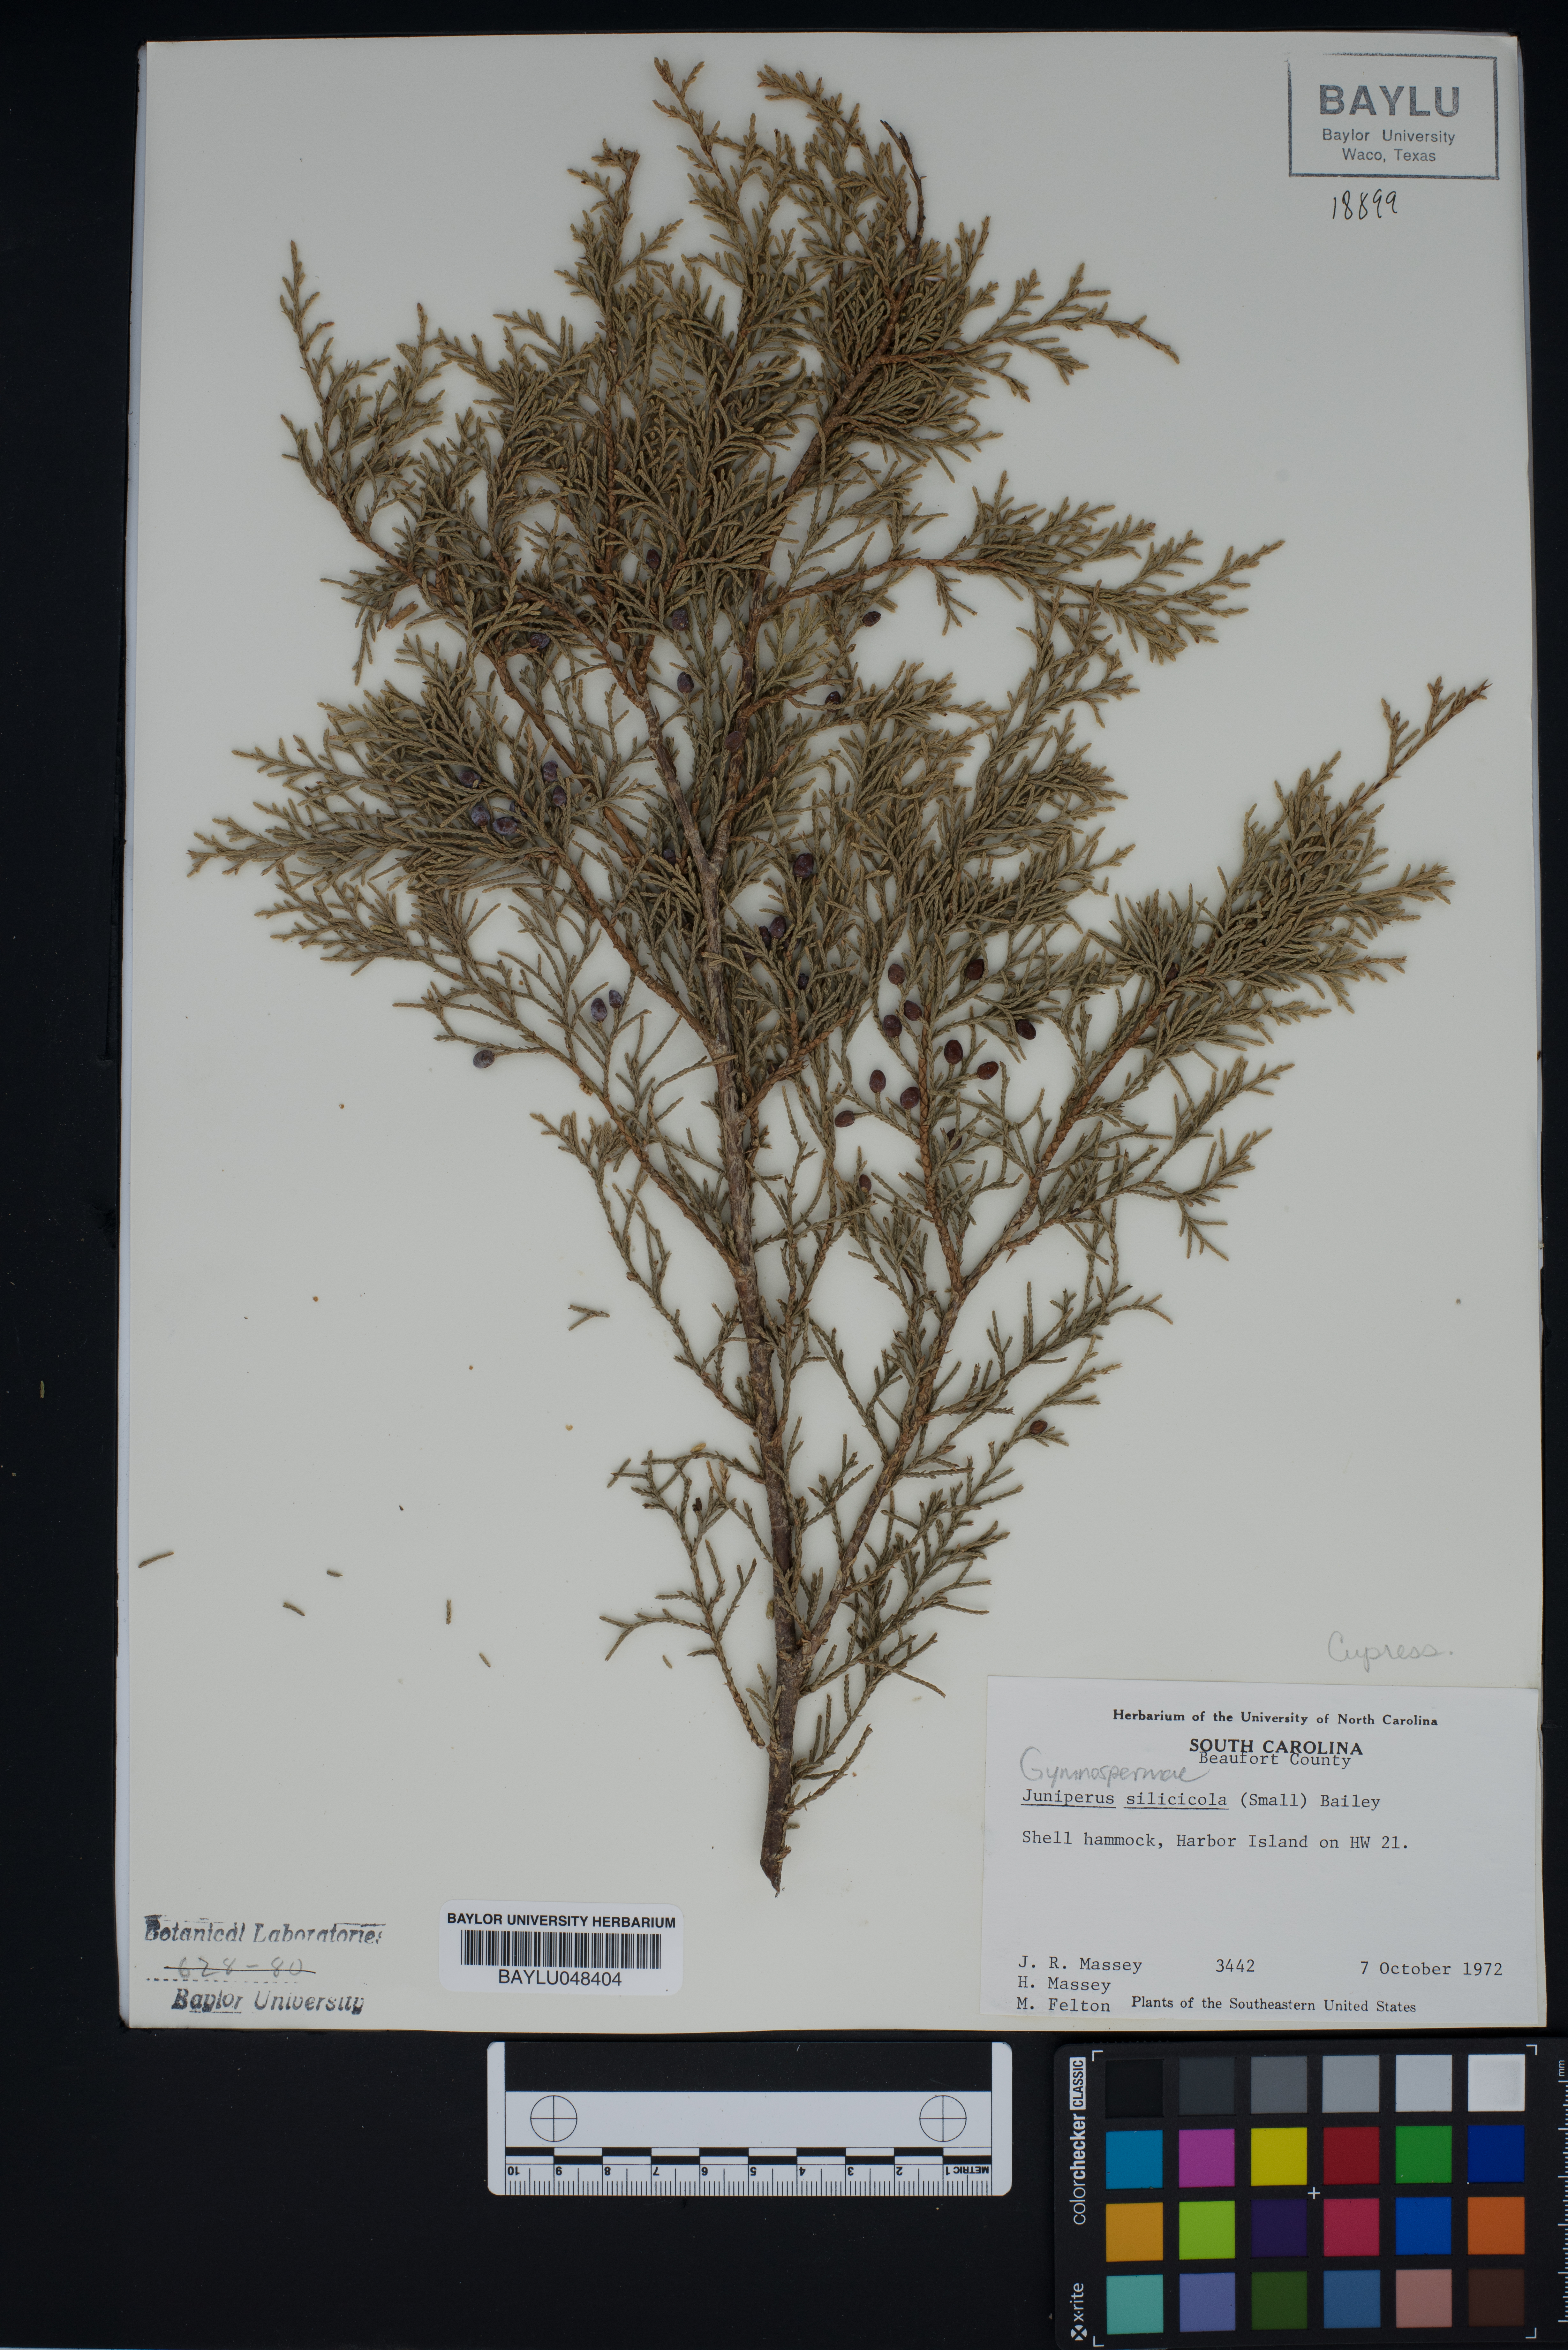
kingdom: Plantae
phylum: Tracheophyta
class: Pinopsida
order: Pinales
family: Cupressaceae
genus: Juniperus
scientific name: Juniperus virginiana
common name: Red juniper
